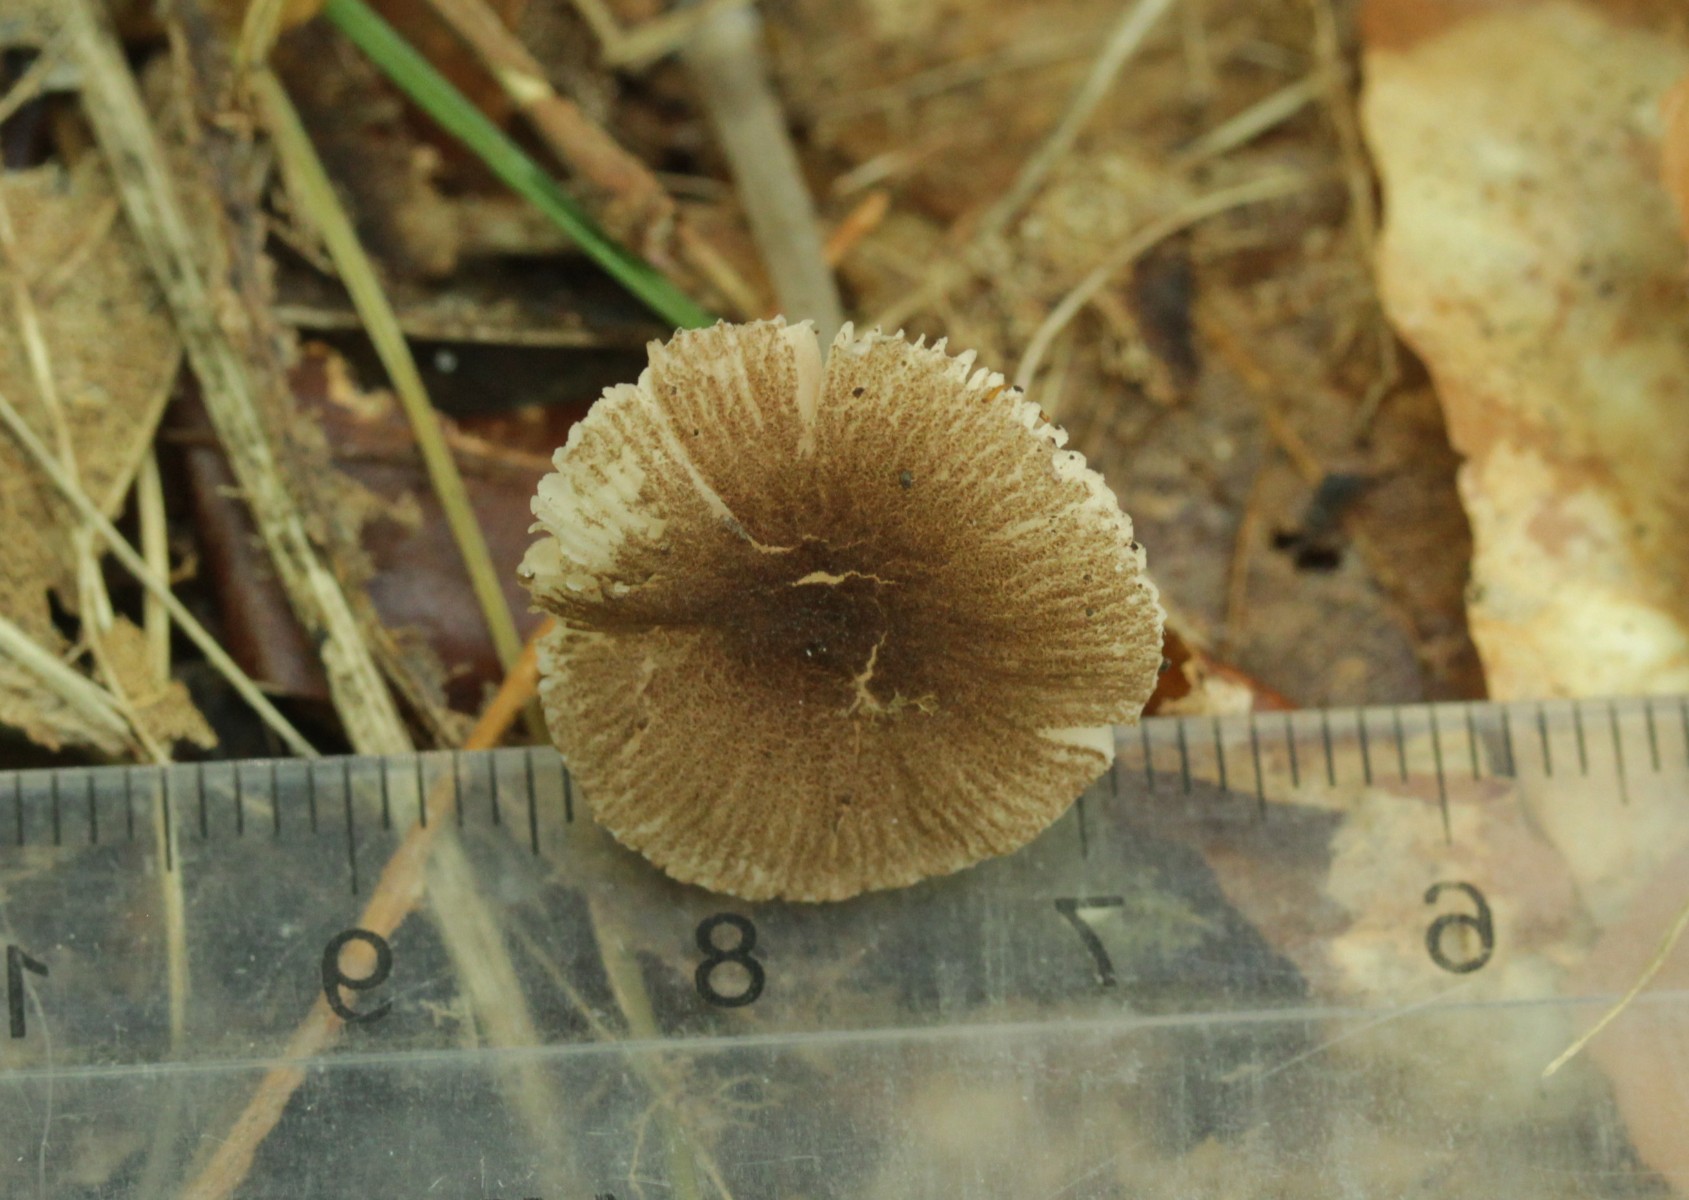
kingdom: Fungi
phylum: Basidiomycota
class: Agaricomycetes
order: Agaricales
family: Pluteaceae
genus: Pluteus
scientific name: Pluteus cutefractus
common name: sprukken skærmhat
